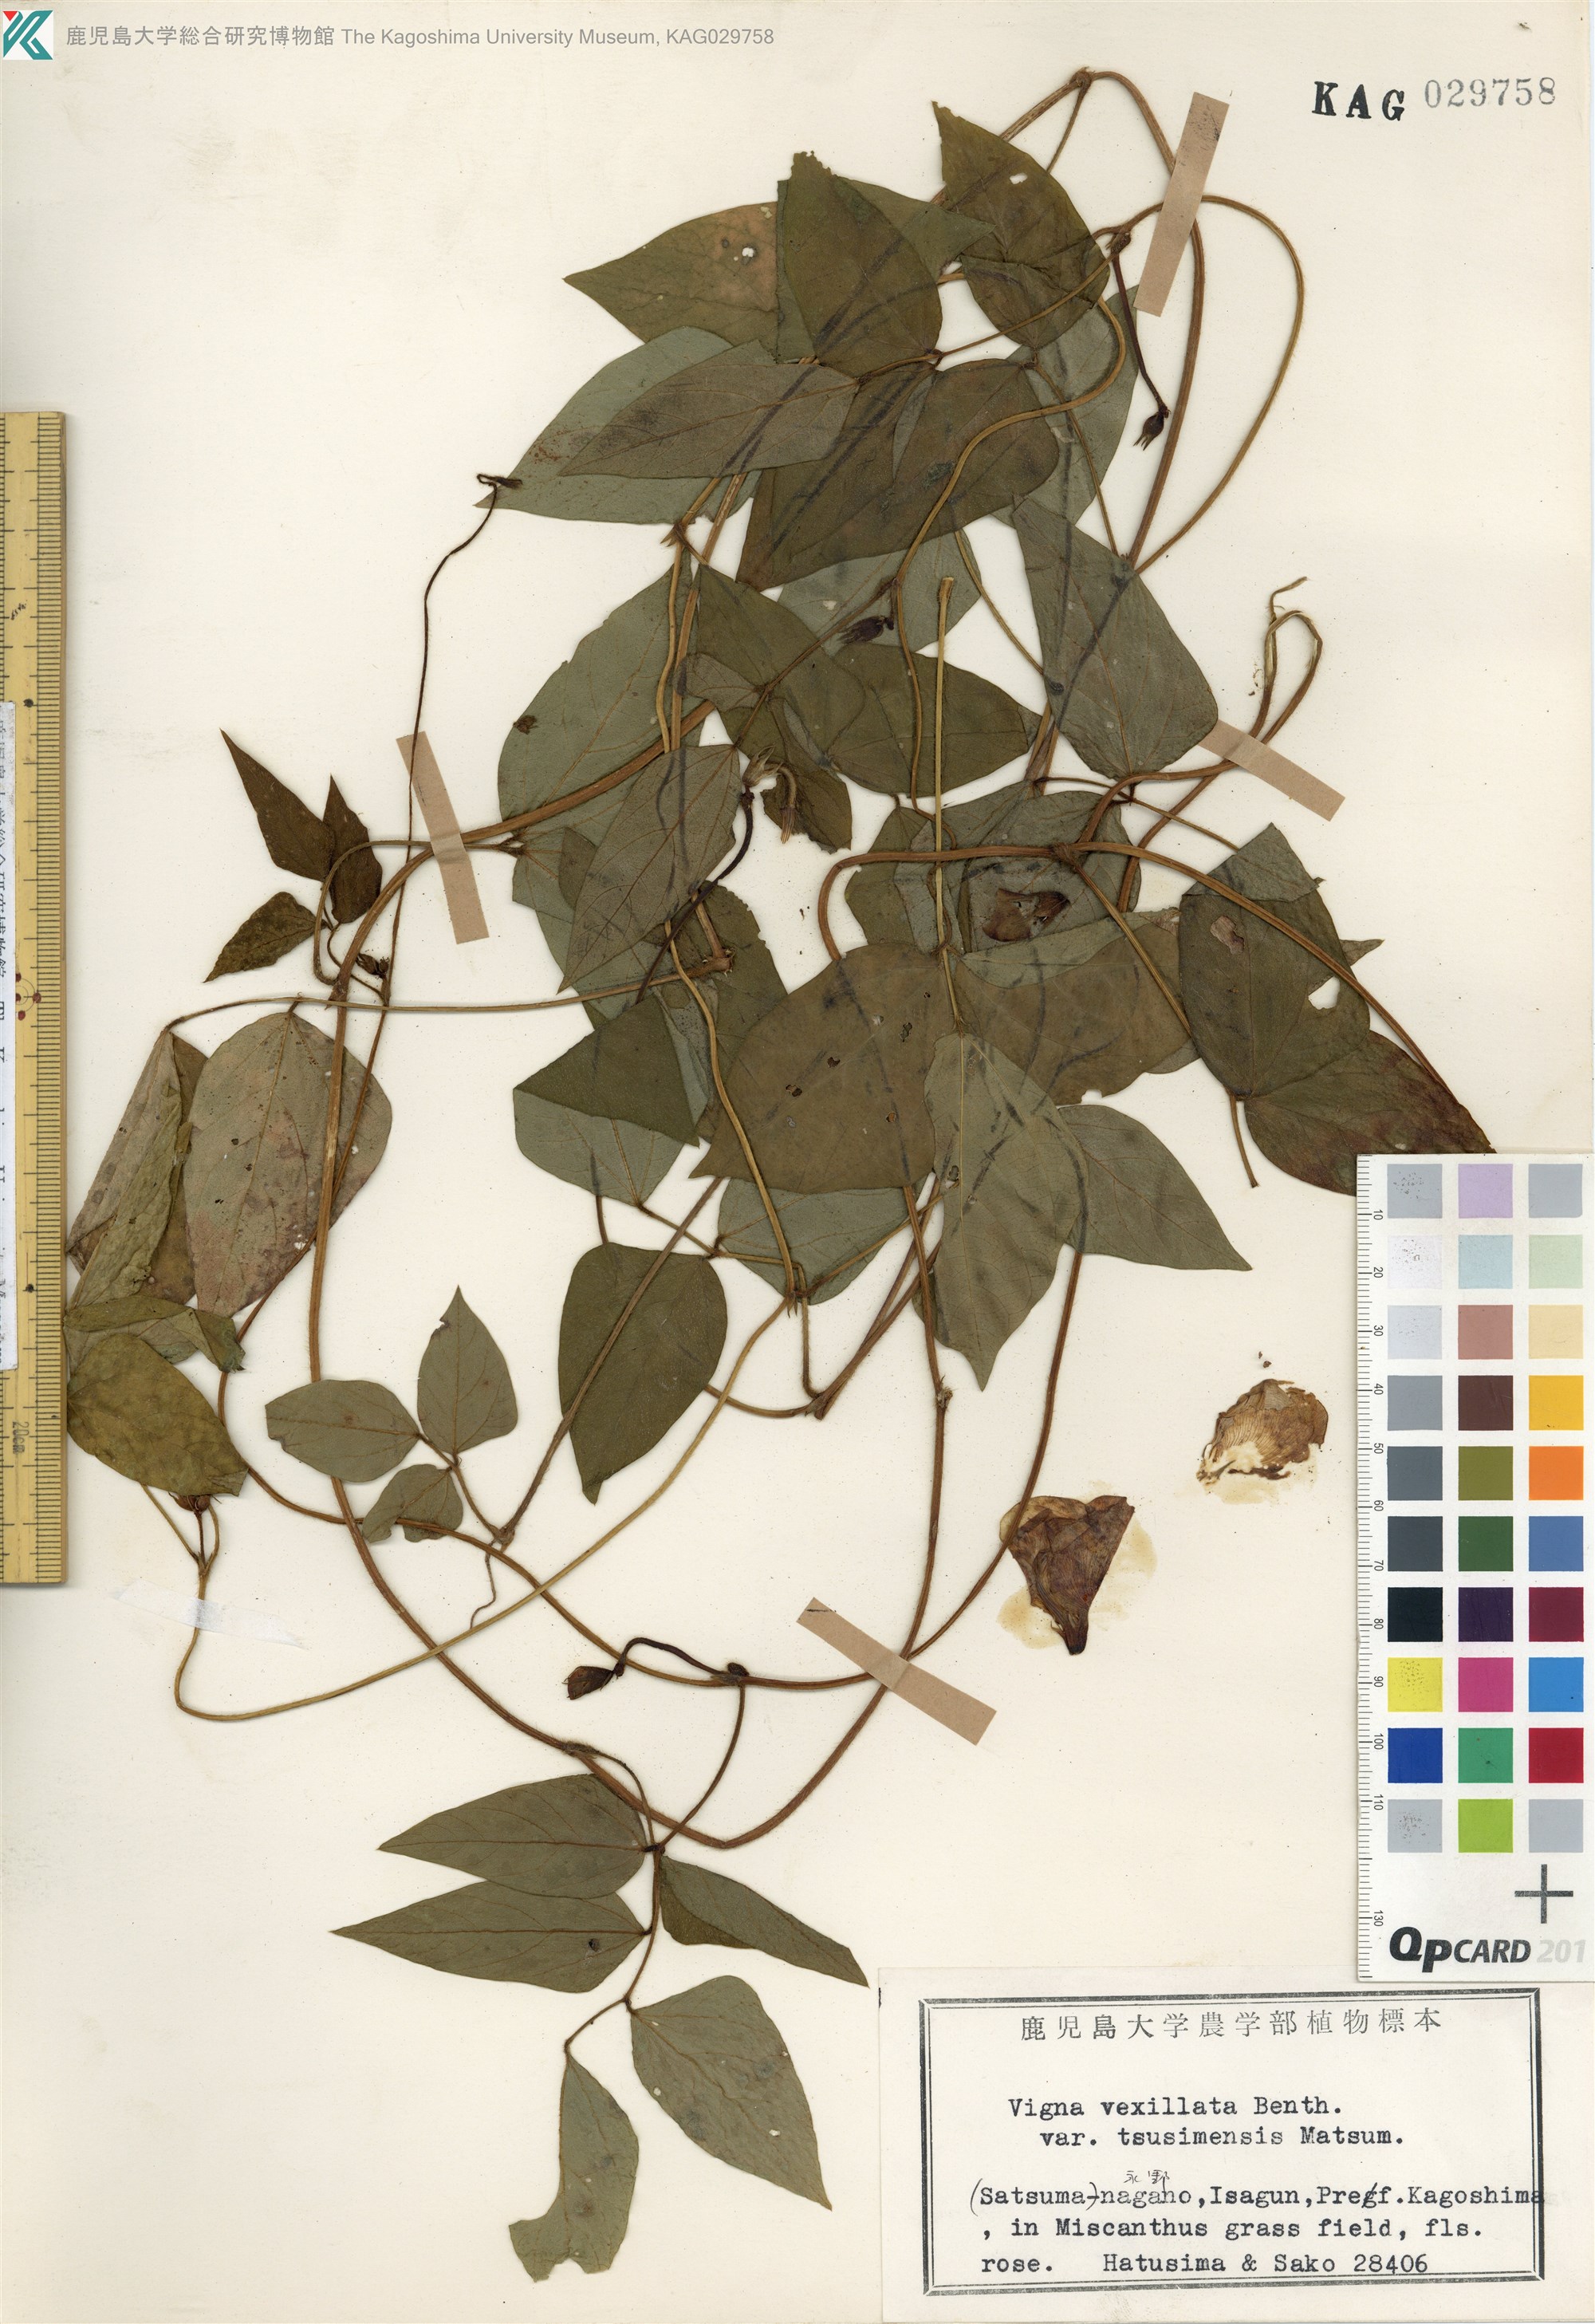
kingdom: Plantae
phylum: Tracheophyta
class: Magnoliopsida
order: Fabales
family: Fabaceae
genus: Vigna
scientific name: Vigna vexillata
